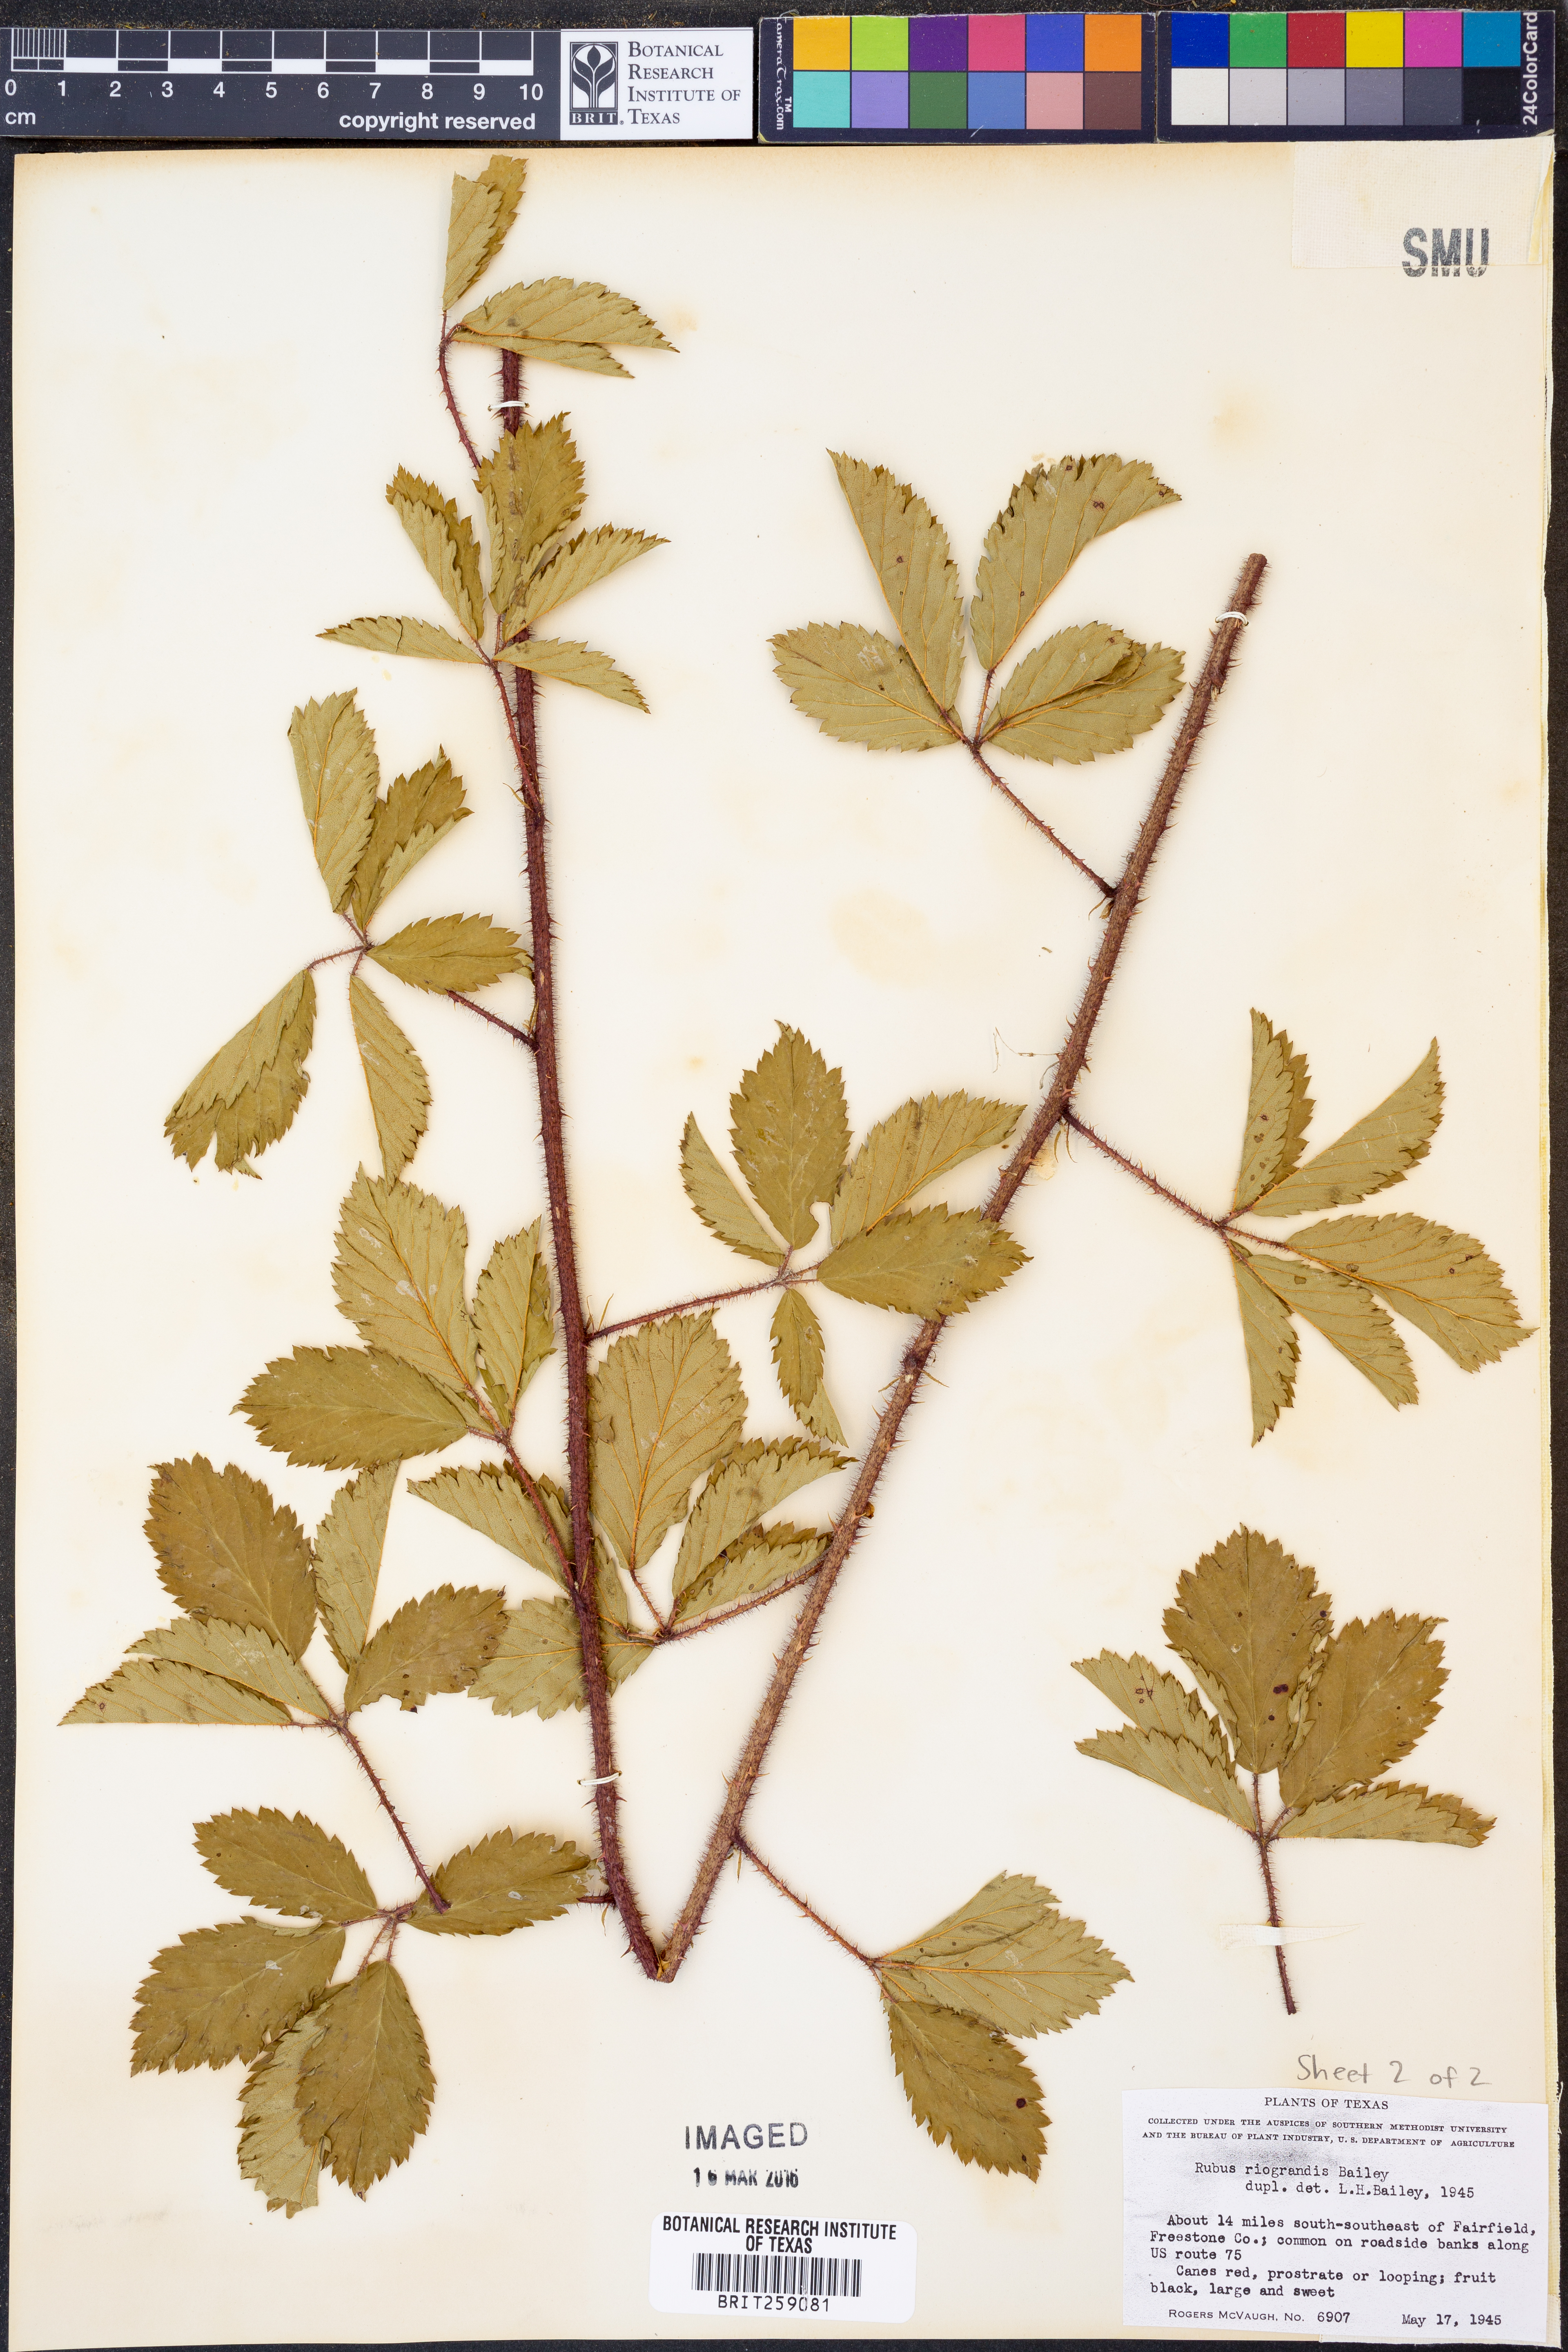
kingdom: Plantae
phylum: Tracheophyta
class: Magnoliopsida
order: Rosales
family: Rosaceae
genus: Rubus
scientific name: Rubus riograndis
